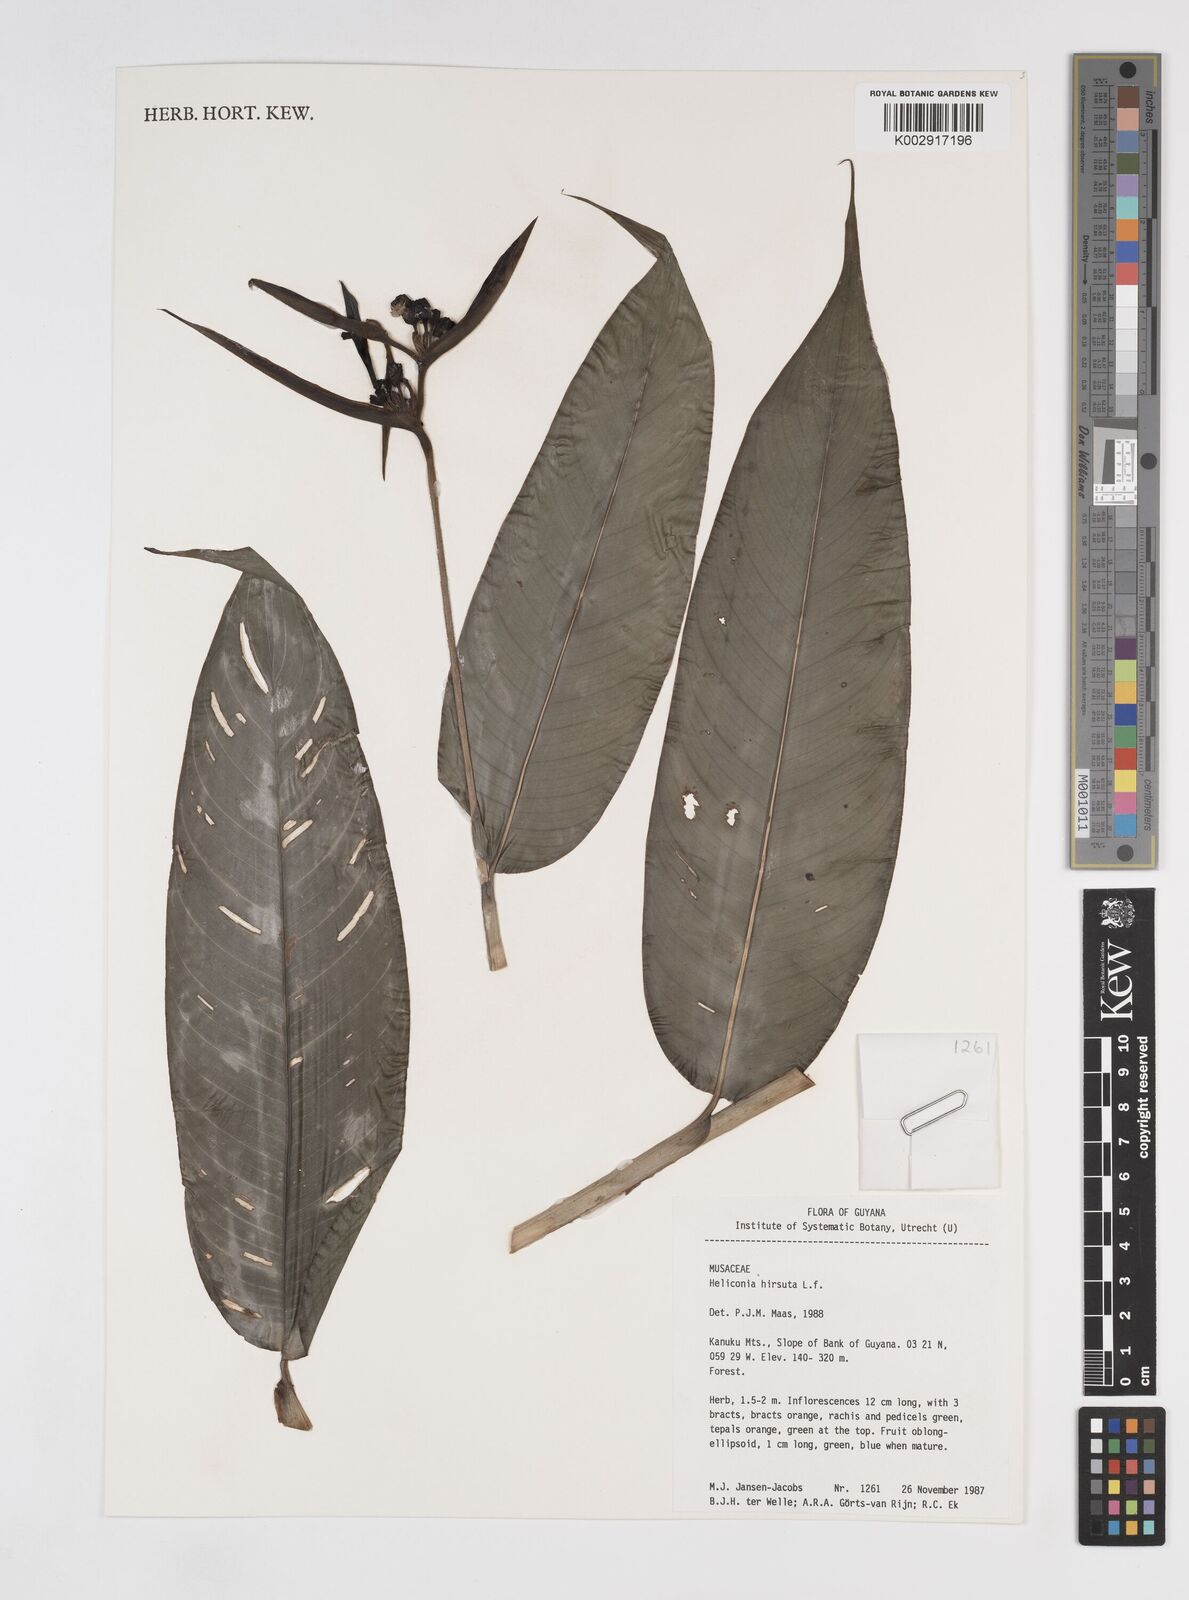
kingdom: Plantae
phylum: Tracheophyta
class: Liliopsida
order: Zingiberales
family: Heliconiaceae
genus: Heliconia
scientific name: Heliconia hirsuta
